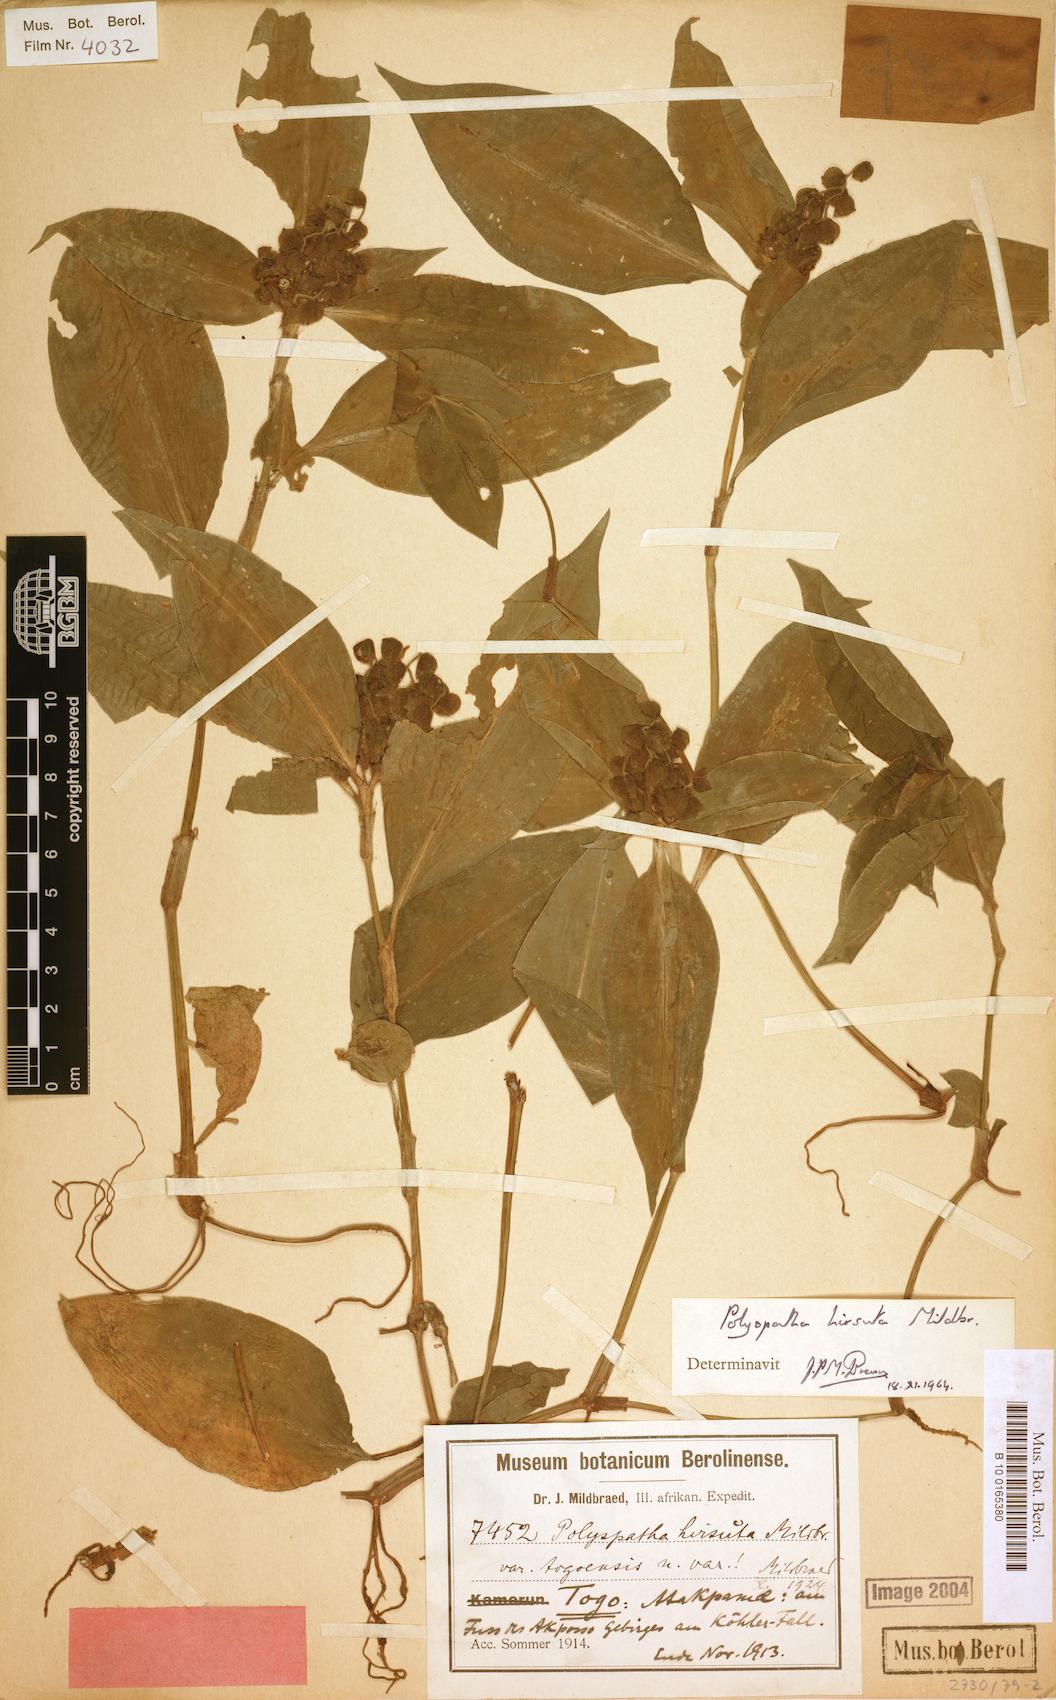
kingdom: Plantae
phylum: Tracheophyta
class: Liliopsida
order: Commelinales
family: Commelinaceae
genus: Polyspatha
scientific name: Polyspatha hirsuta
